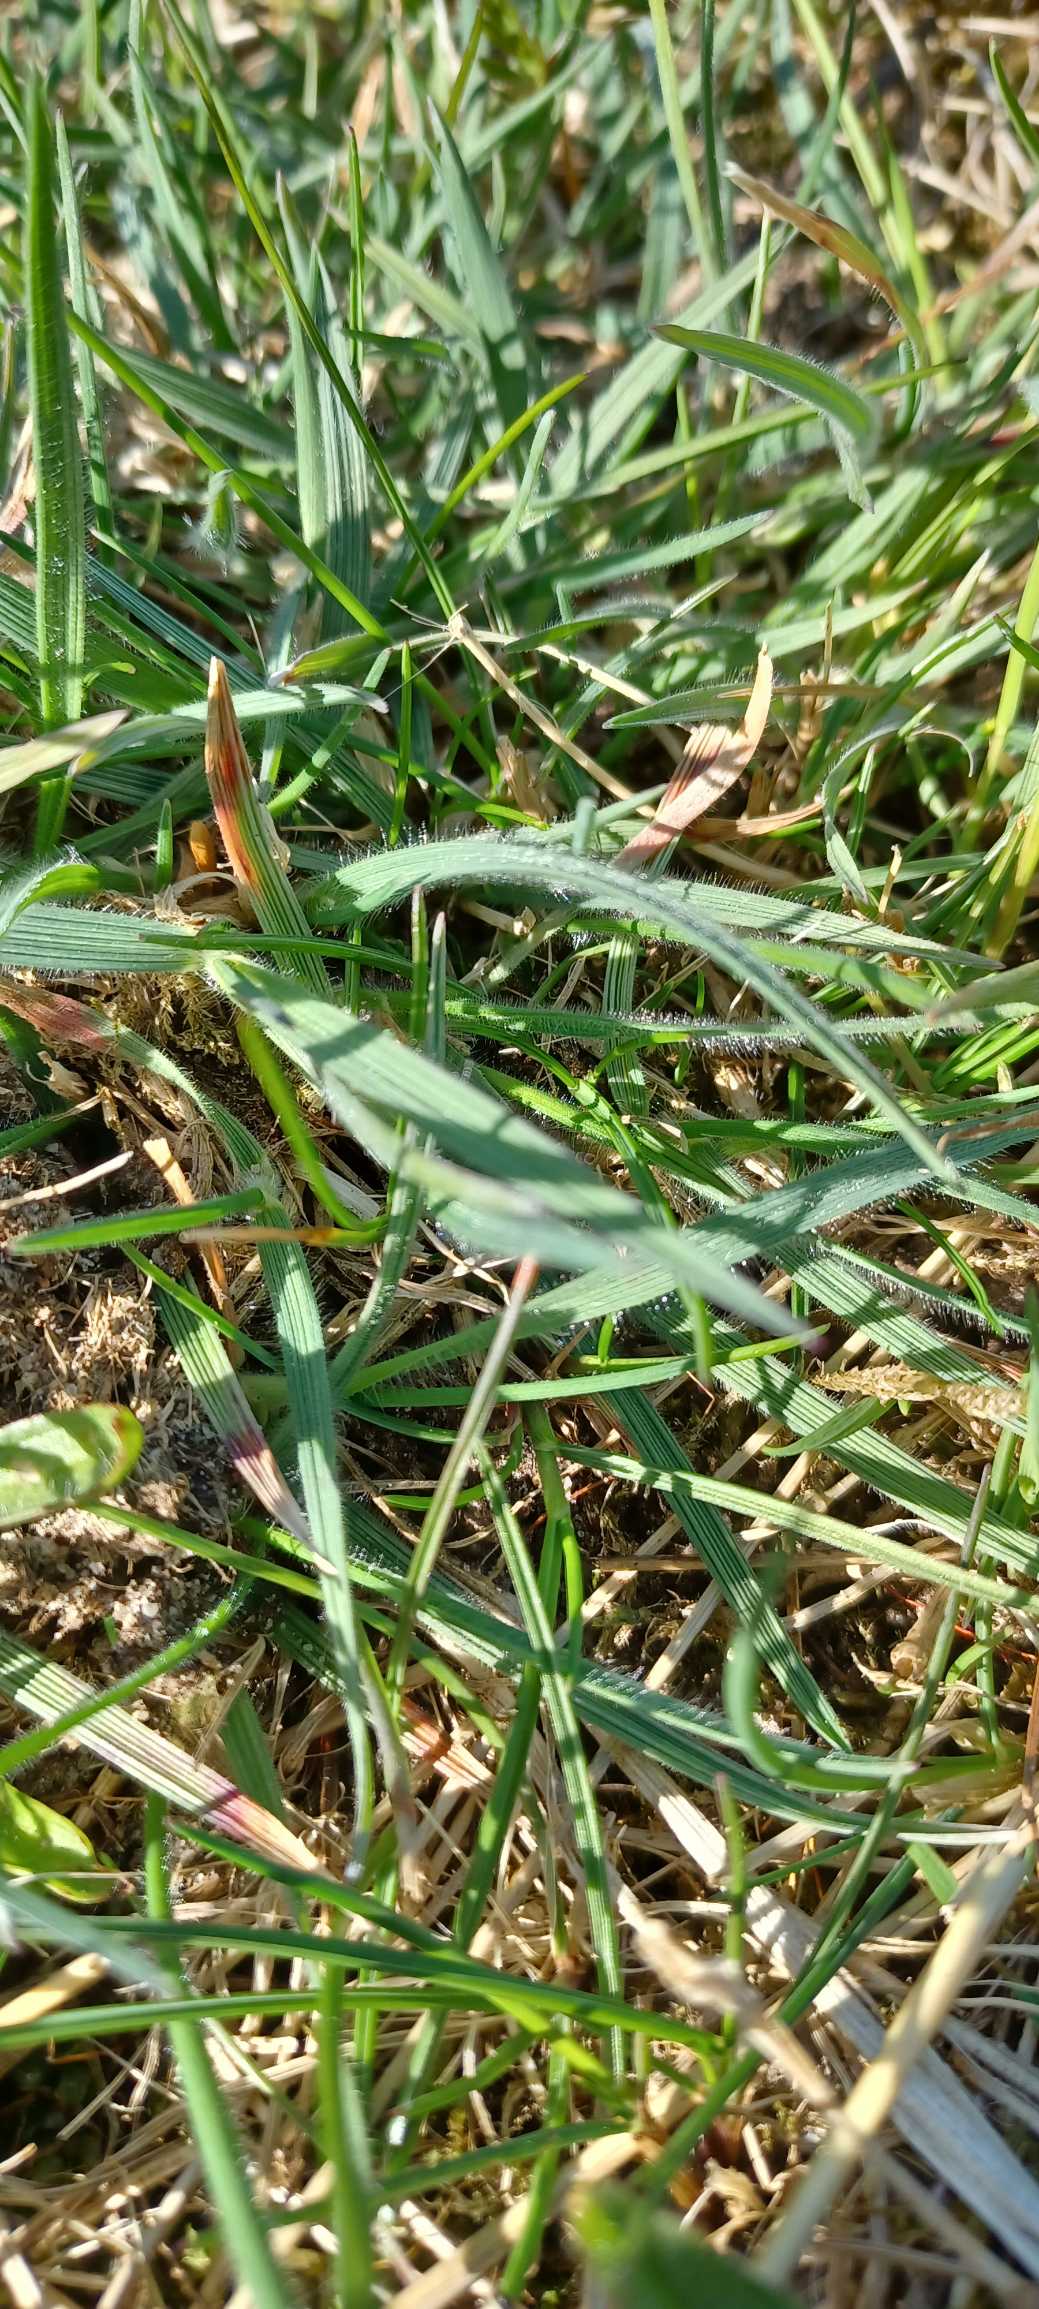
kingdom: Plantae
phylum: Tracheophyta
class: Liliopsida
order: Poales
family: Poaceae
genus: Koeleria
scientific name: Koeleria pyramidata
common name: Dansk kambunke
